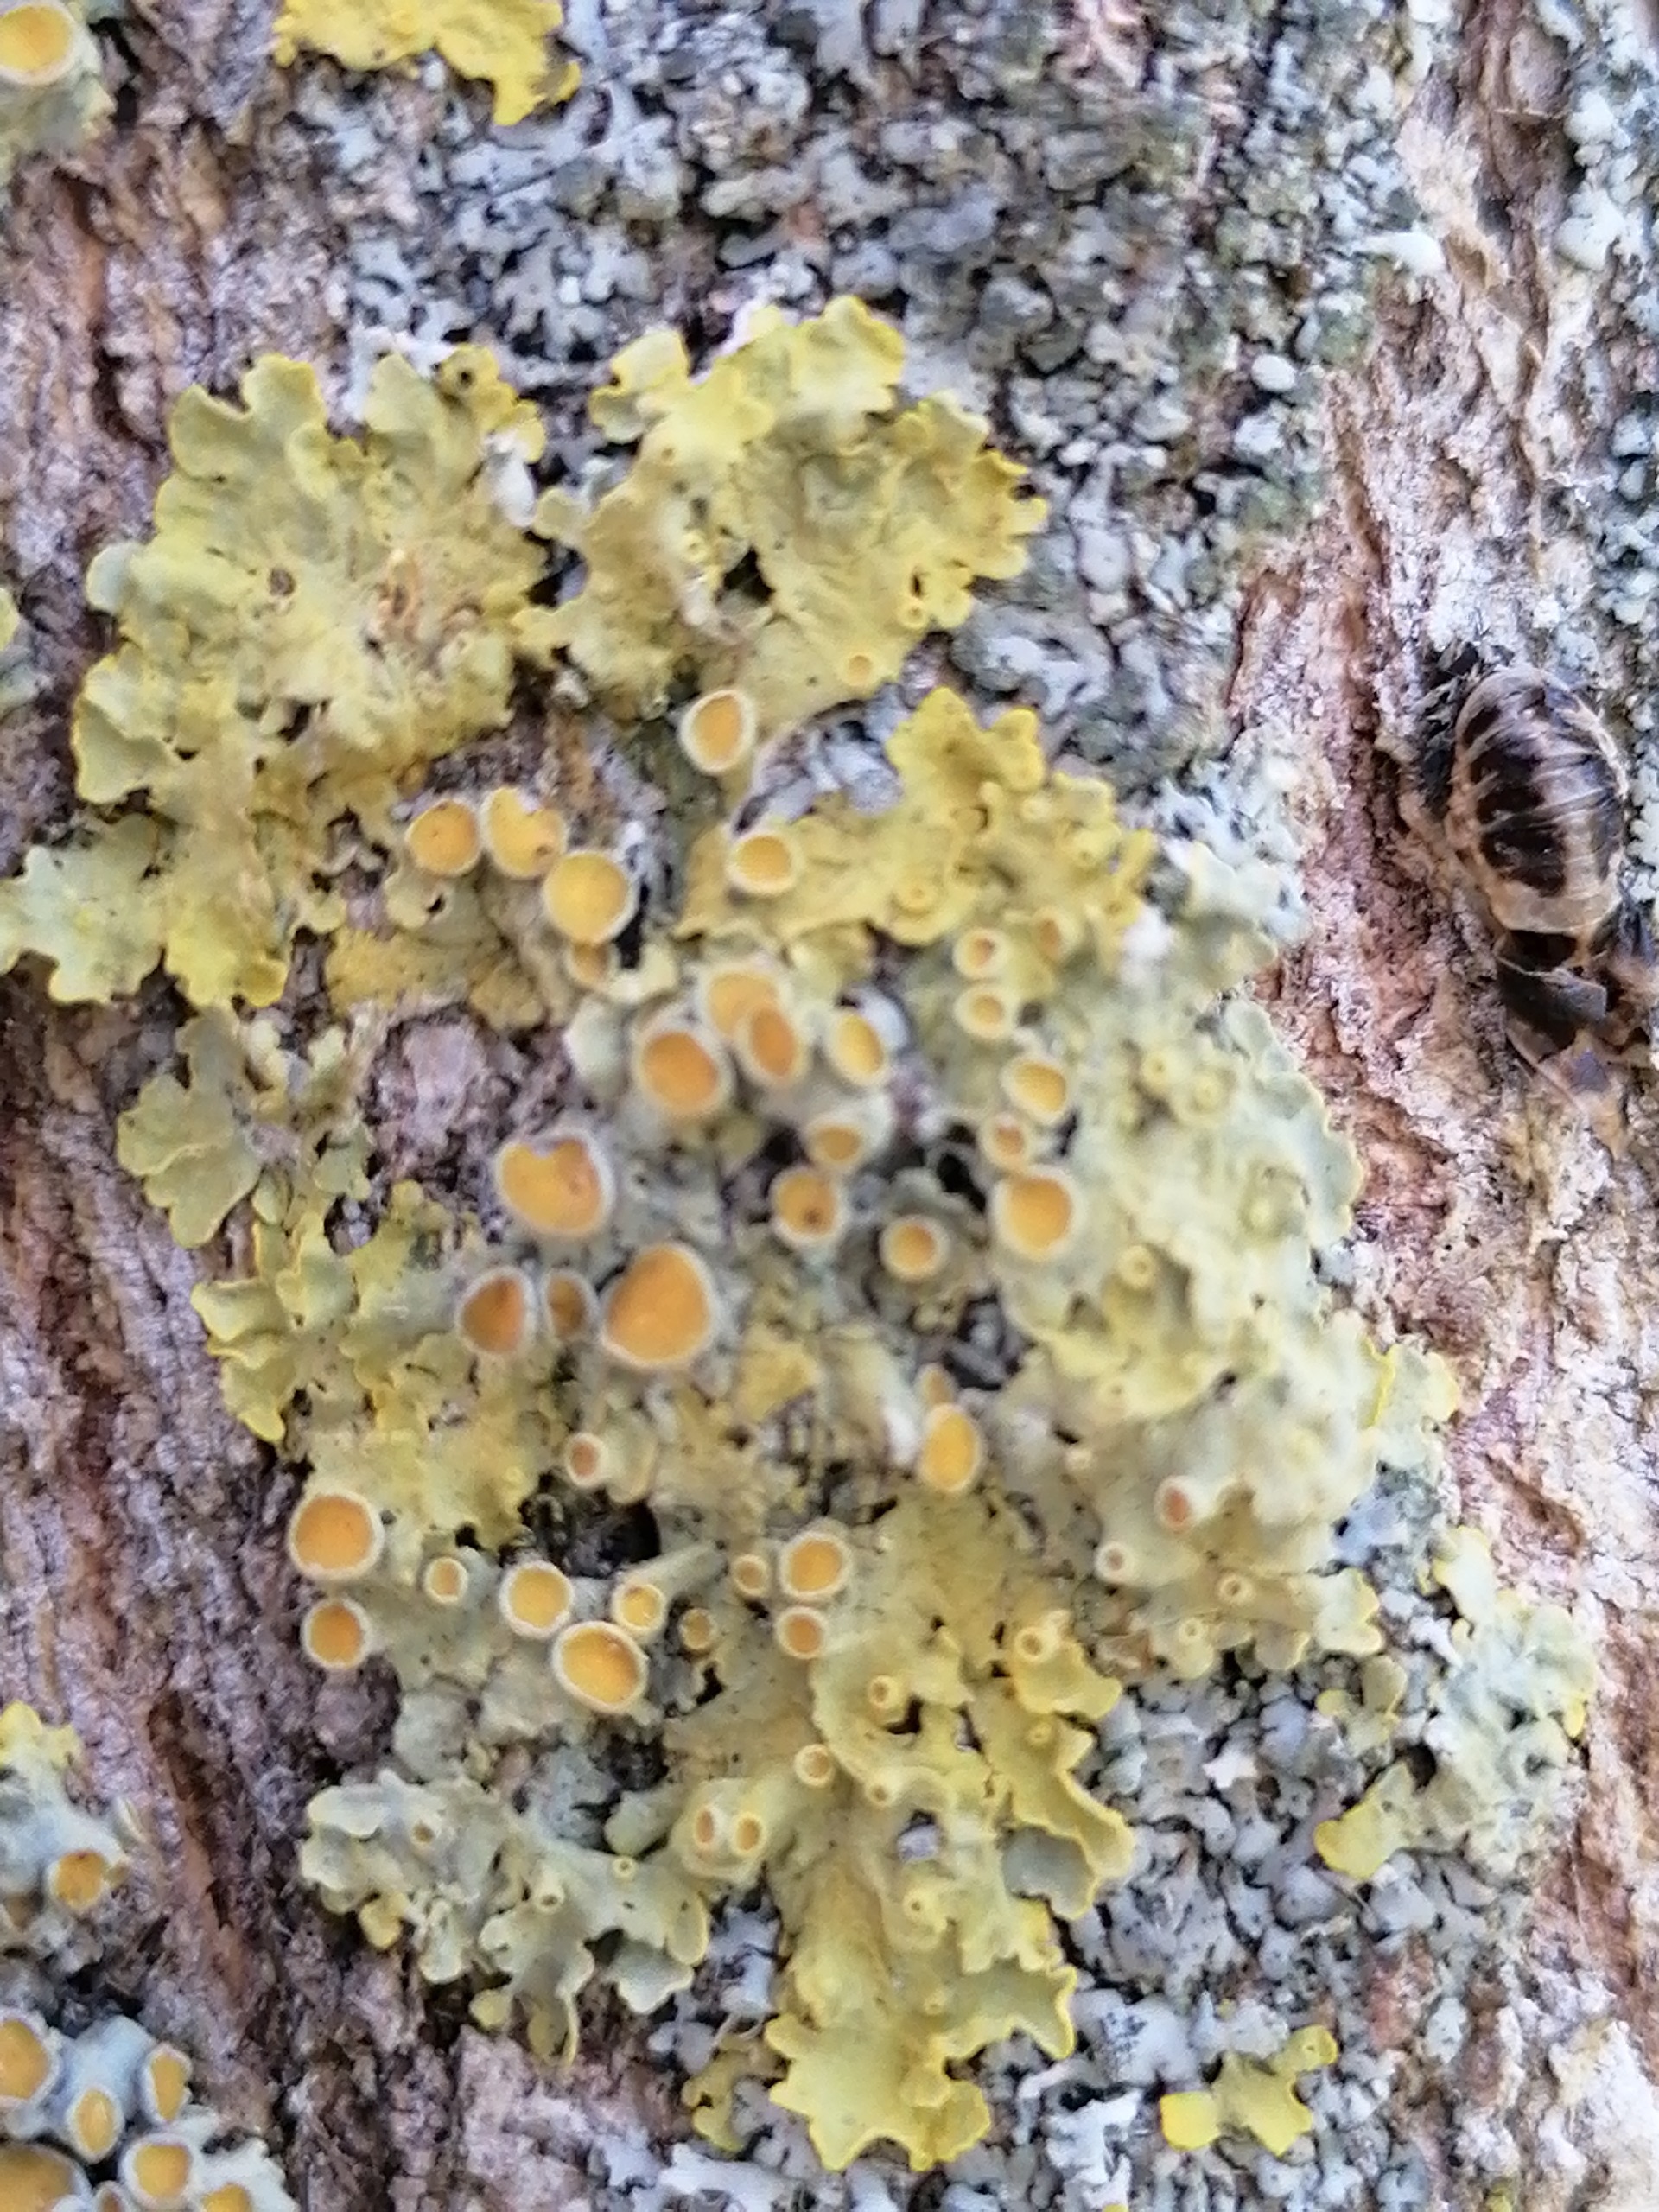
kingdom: Fungi
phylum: Ascomycota
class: Lecanoromycetes
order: Teloschistales
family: Teloschistaceae
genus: Xanthoria
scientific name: Xanthoria parietina
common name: Almindelig væggelav
